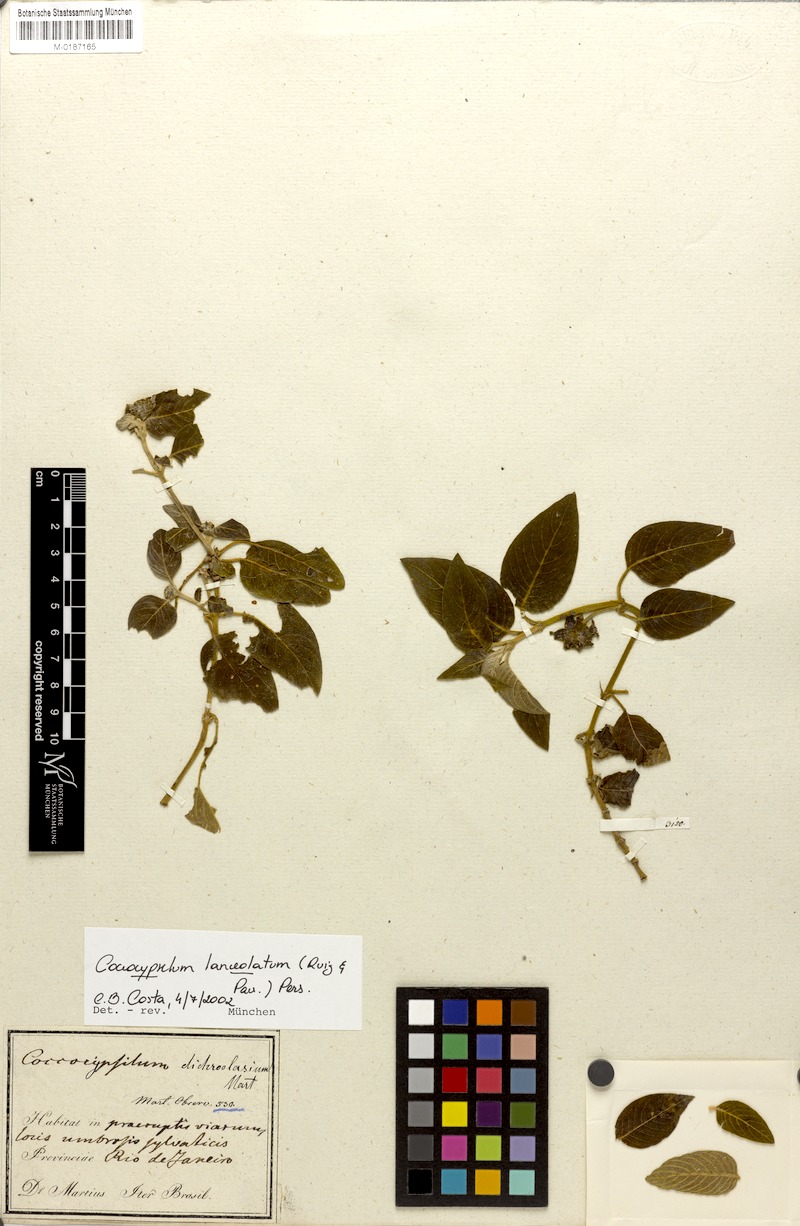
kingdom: Plantae
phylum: Tracheophyta
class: Magnoliopsida
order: Gentianales
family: Rubiaceae
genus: Coccocypselum
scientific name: Coccocypselum lanceolatum
